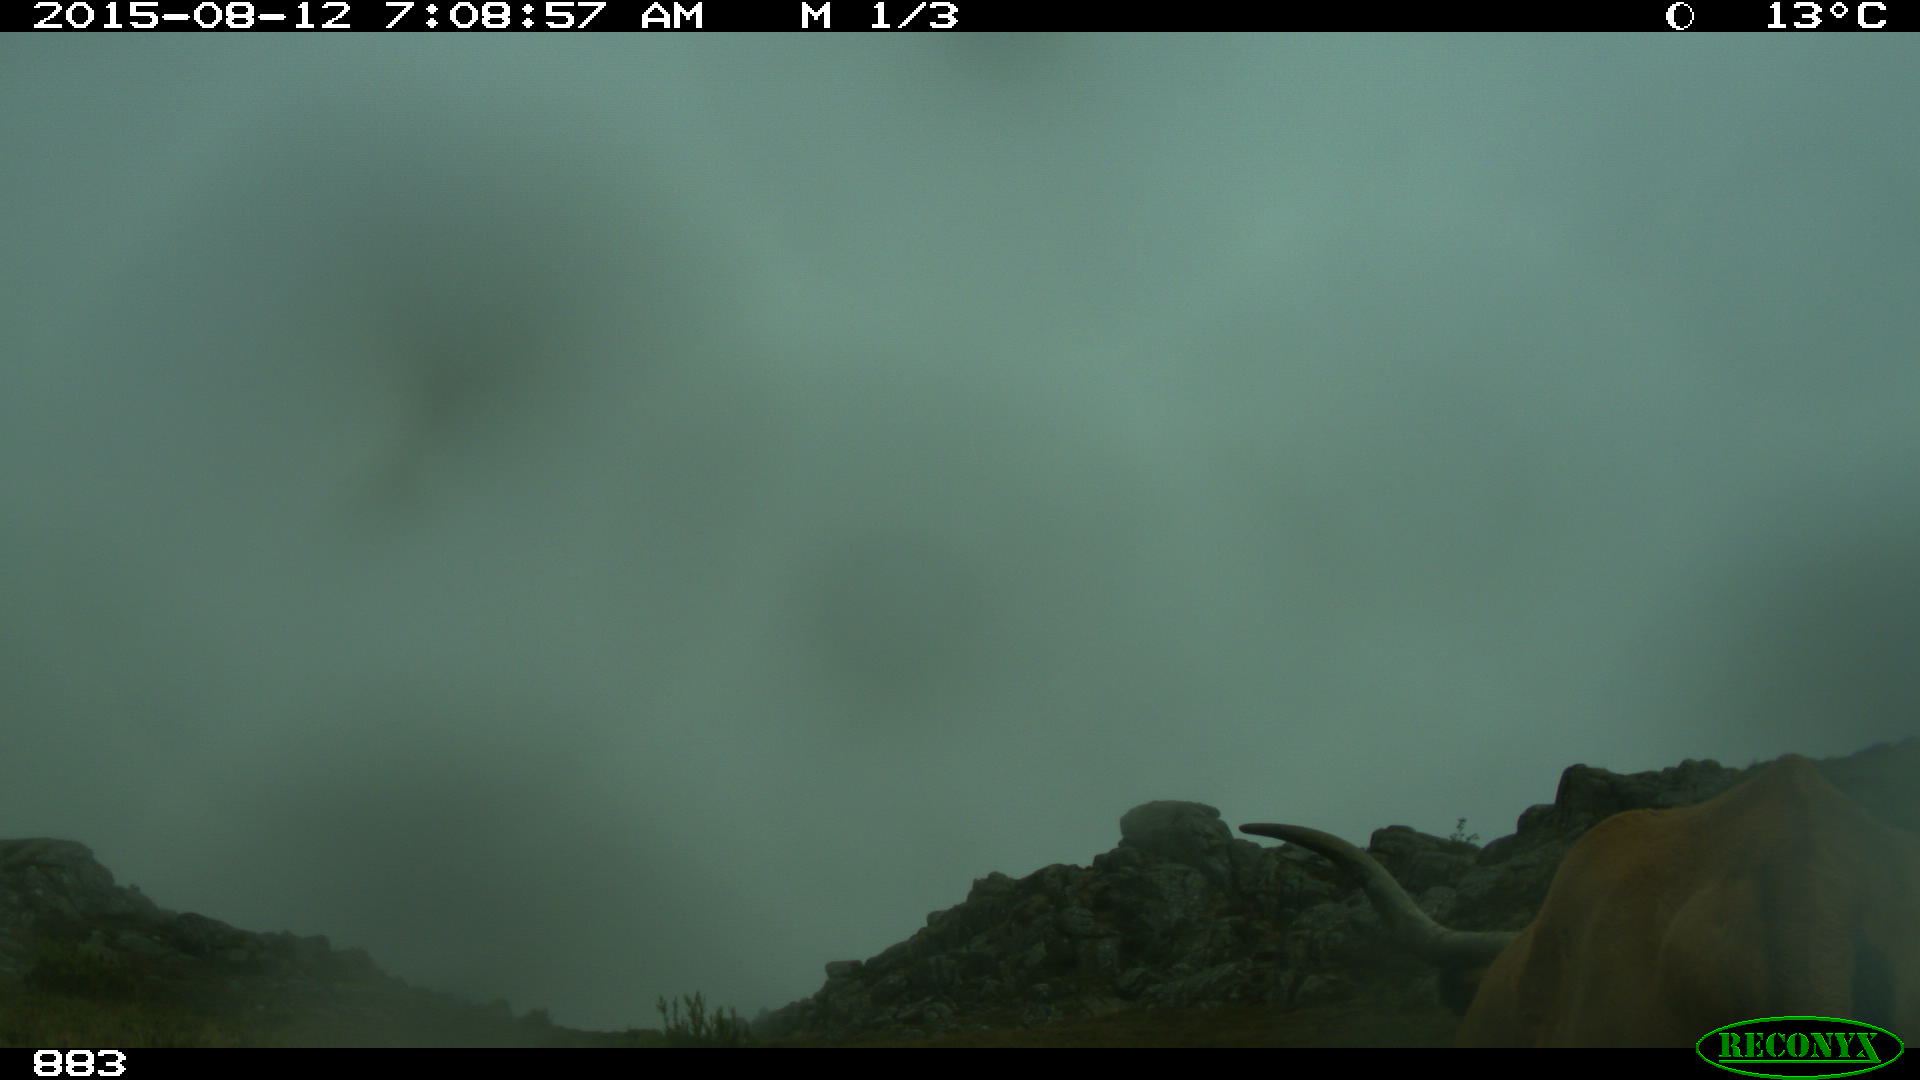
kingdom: Animalia
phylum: Chordata
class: Mammalia
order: Artiodactyla
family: Bovidae
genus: Bos
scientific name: Bos taurus
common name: Domesticated cattle
